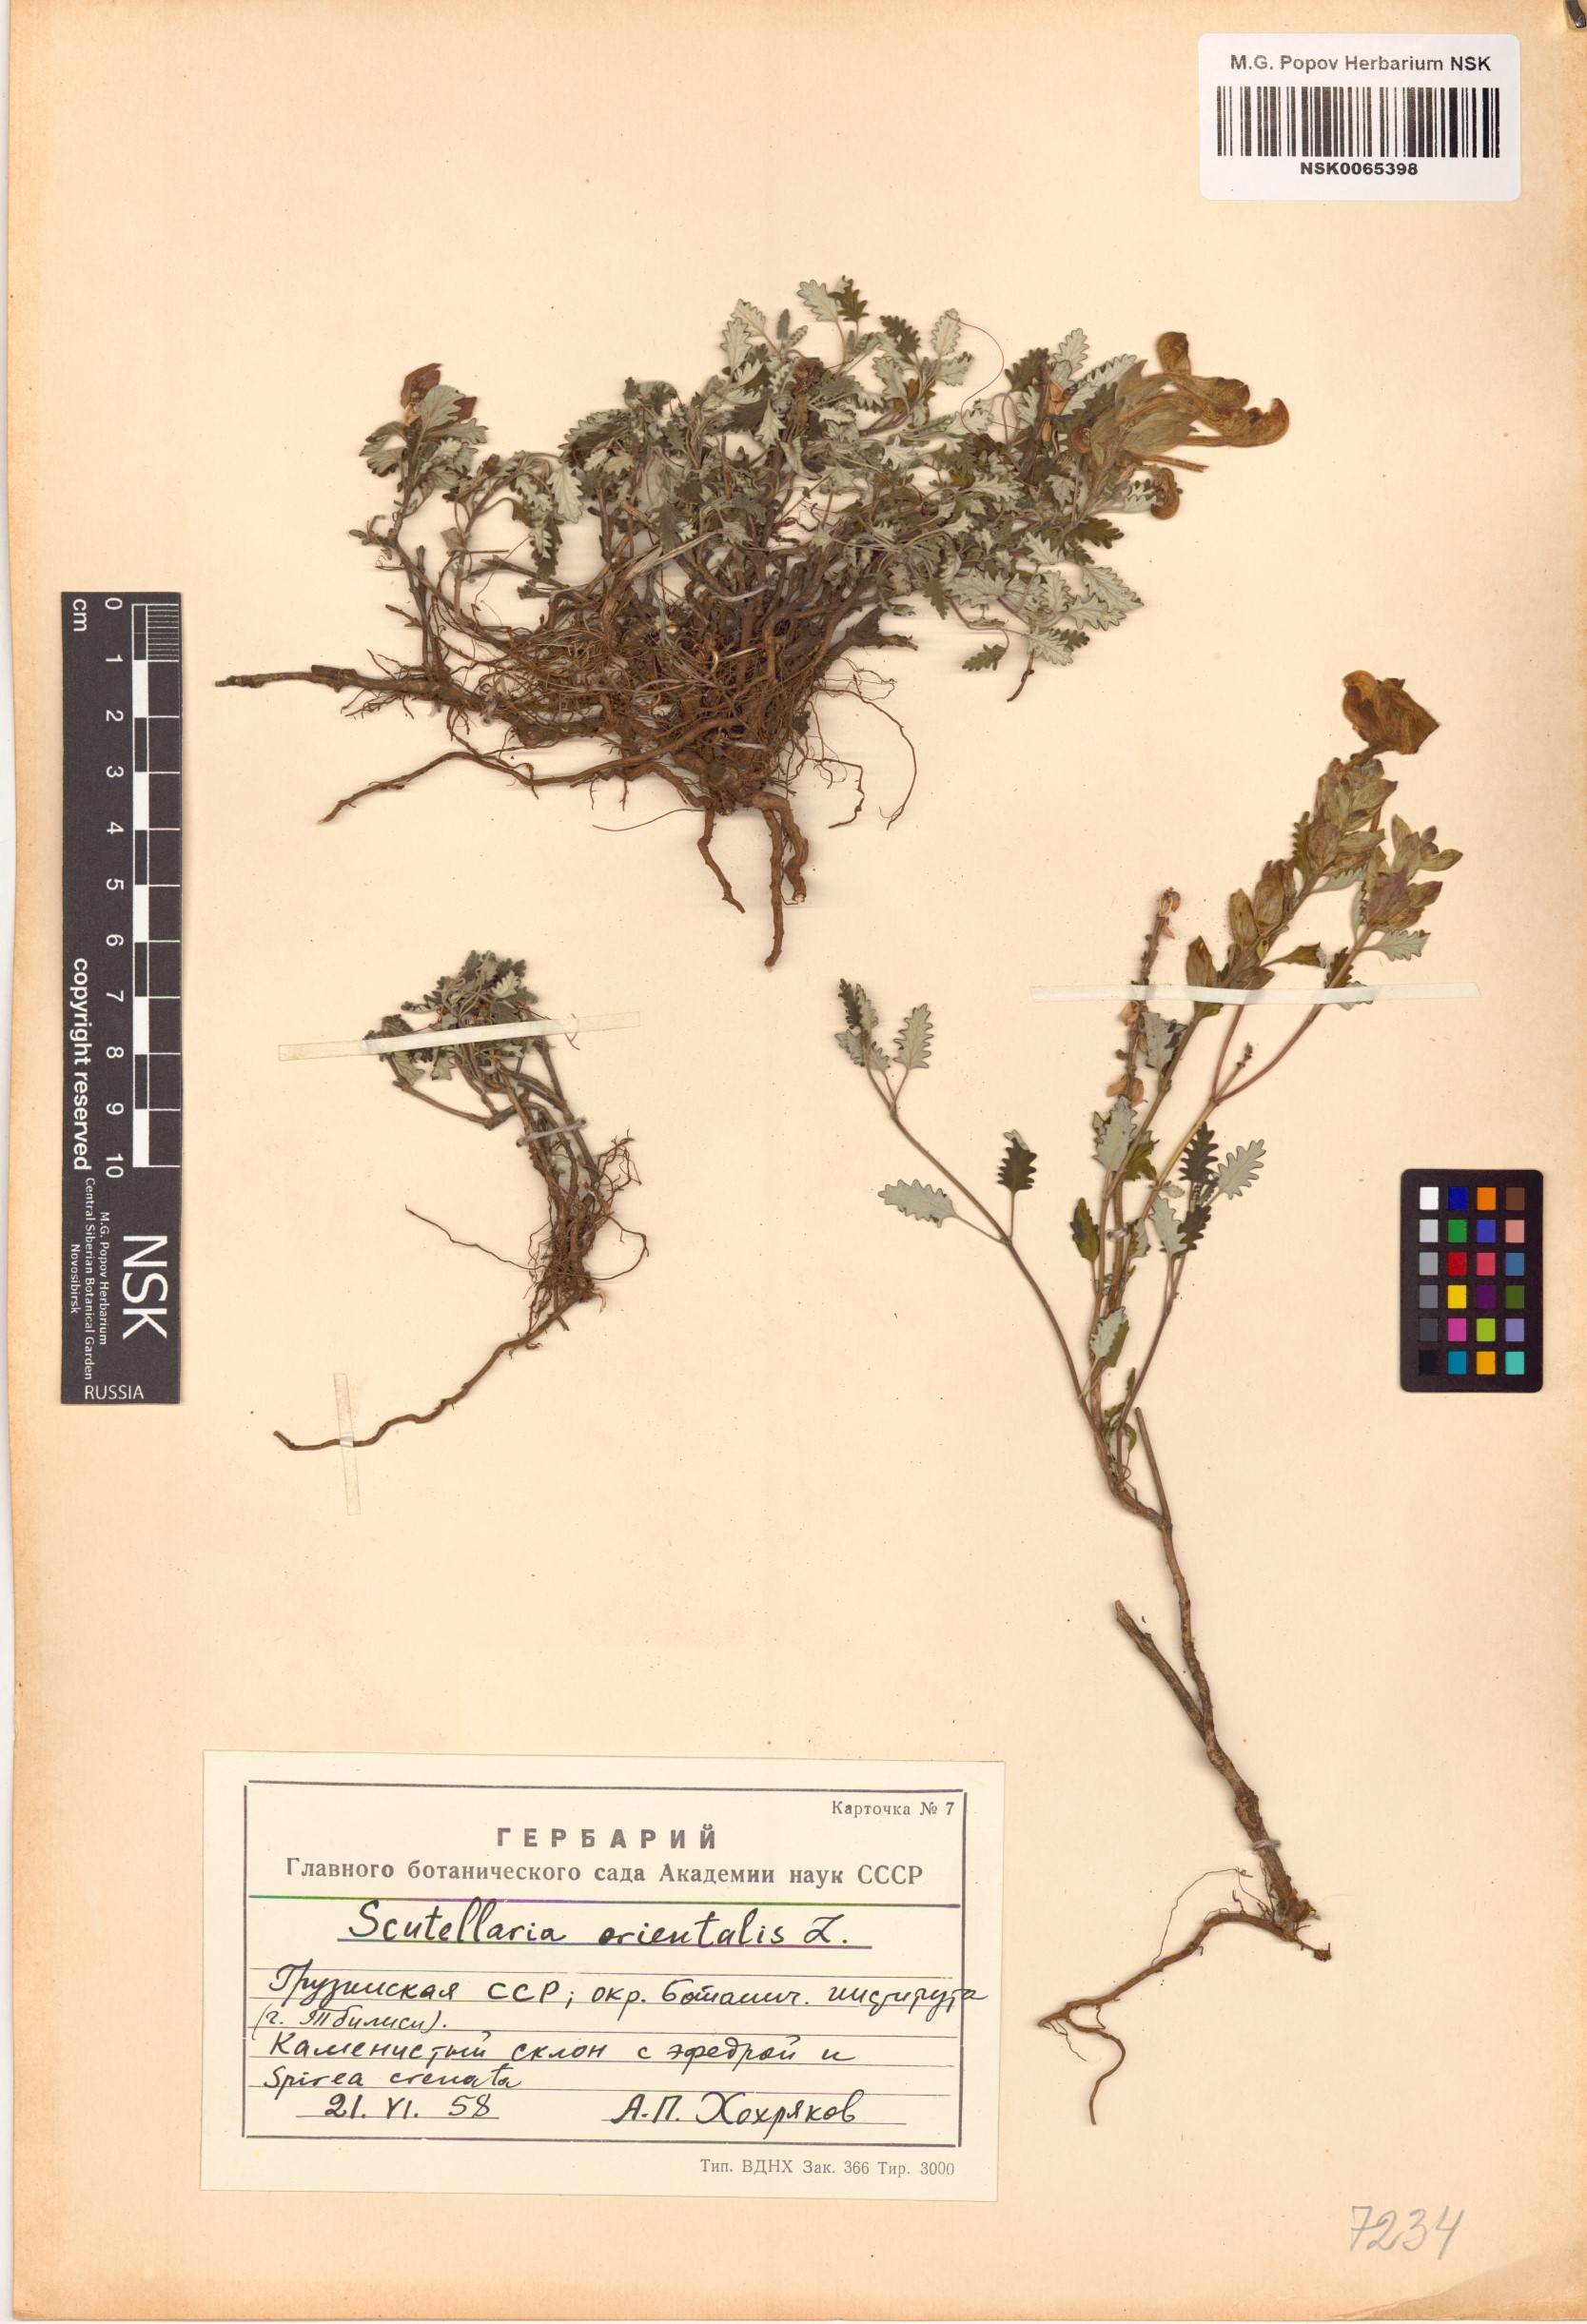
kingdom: Plantae
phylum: Tracheophyta
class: Magnoliopsida
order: Lamiales
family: Lamiaceae
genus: Scutellaria
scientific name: Scutellaria orientalis
